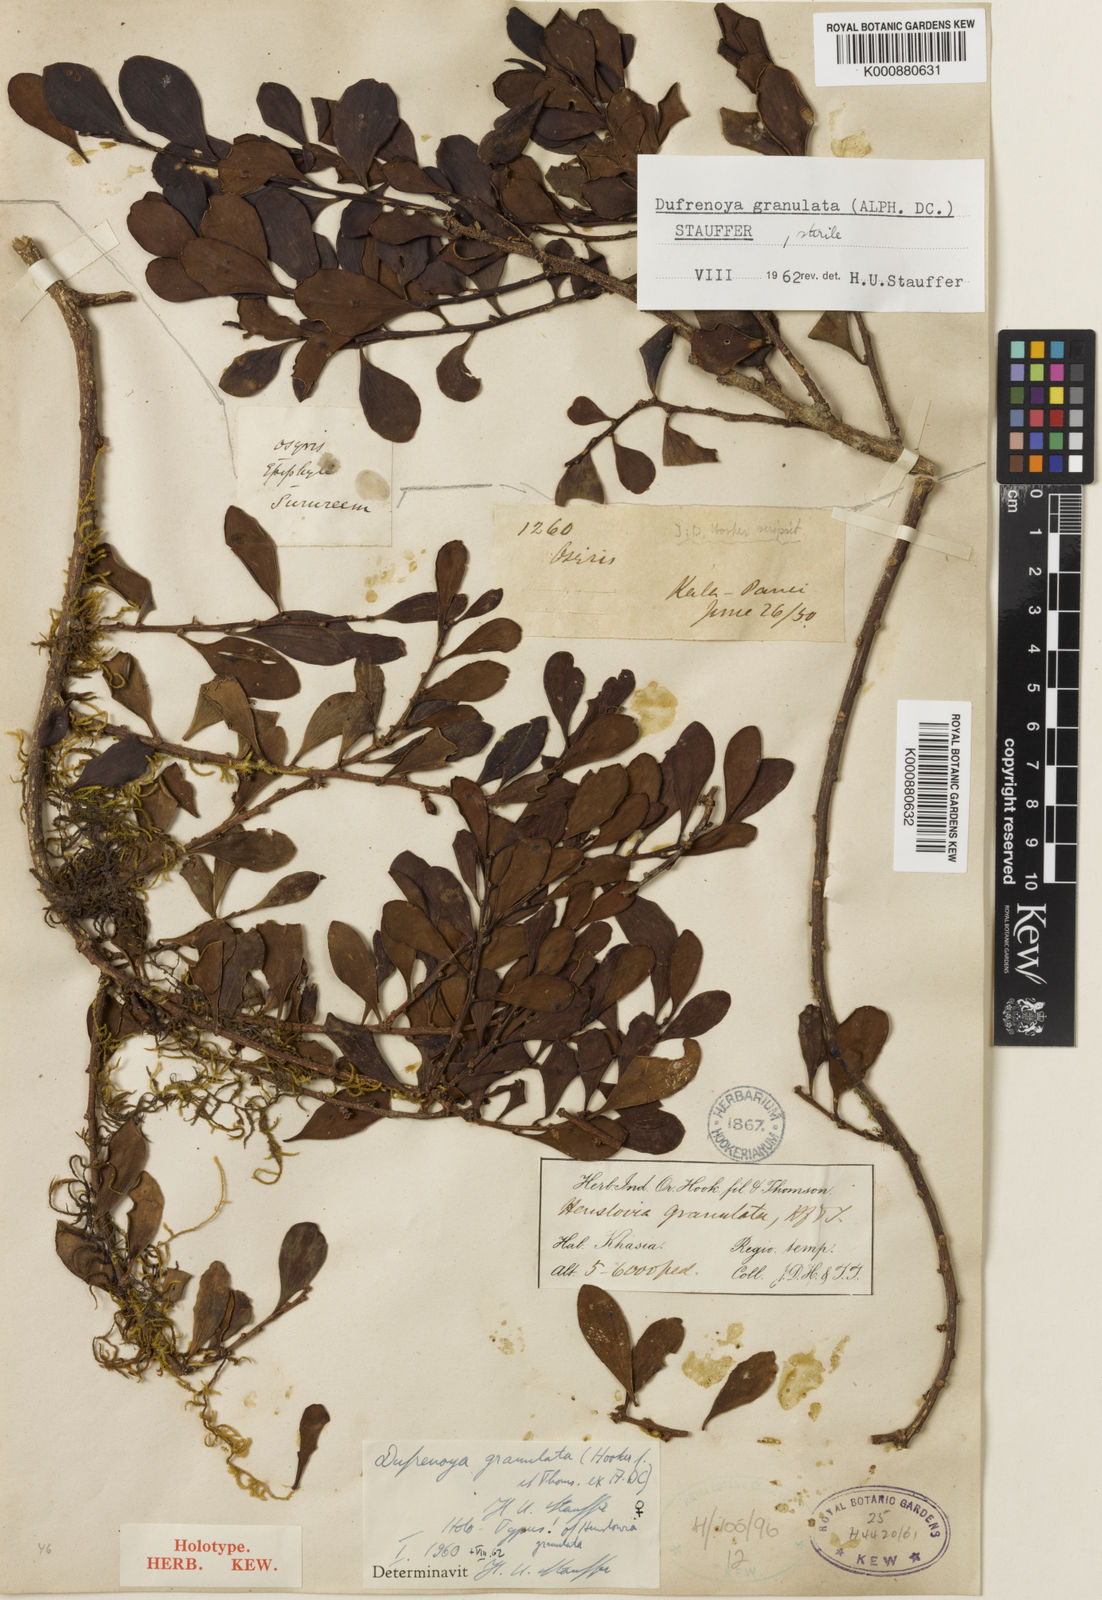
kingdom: Plantae
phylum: Tracheophyta
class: Magnoliopsida
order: Santalales
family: Amphorogynaceae
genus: Dendrotrophe
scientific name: Dendrotrophe granulata
